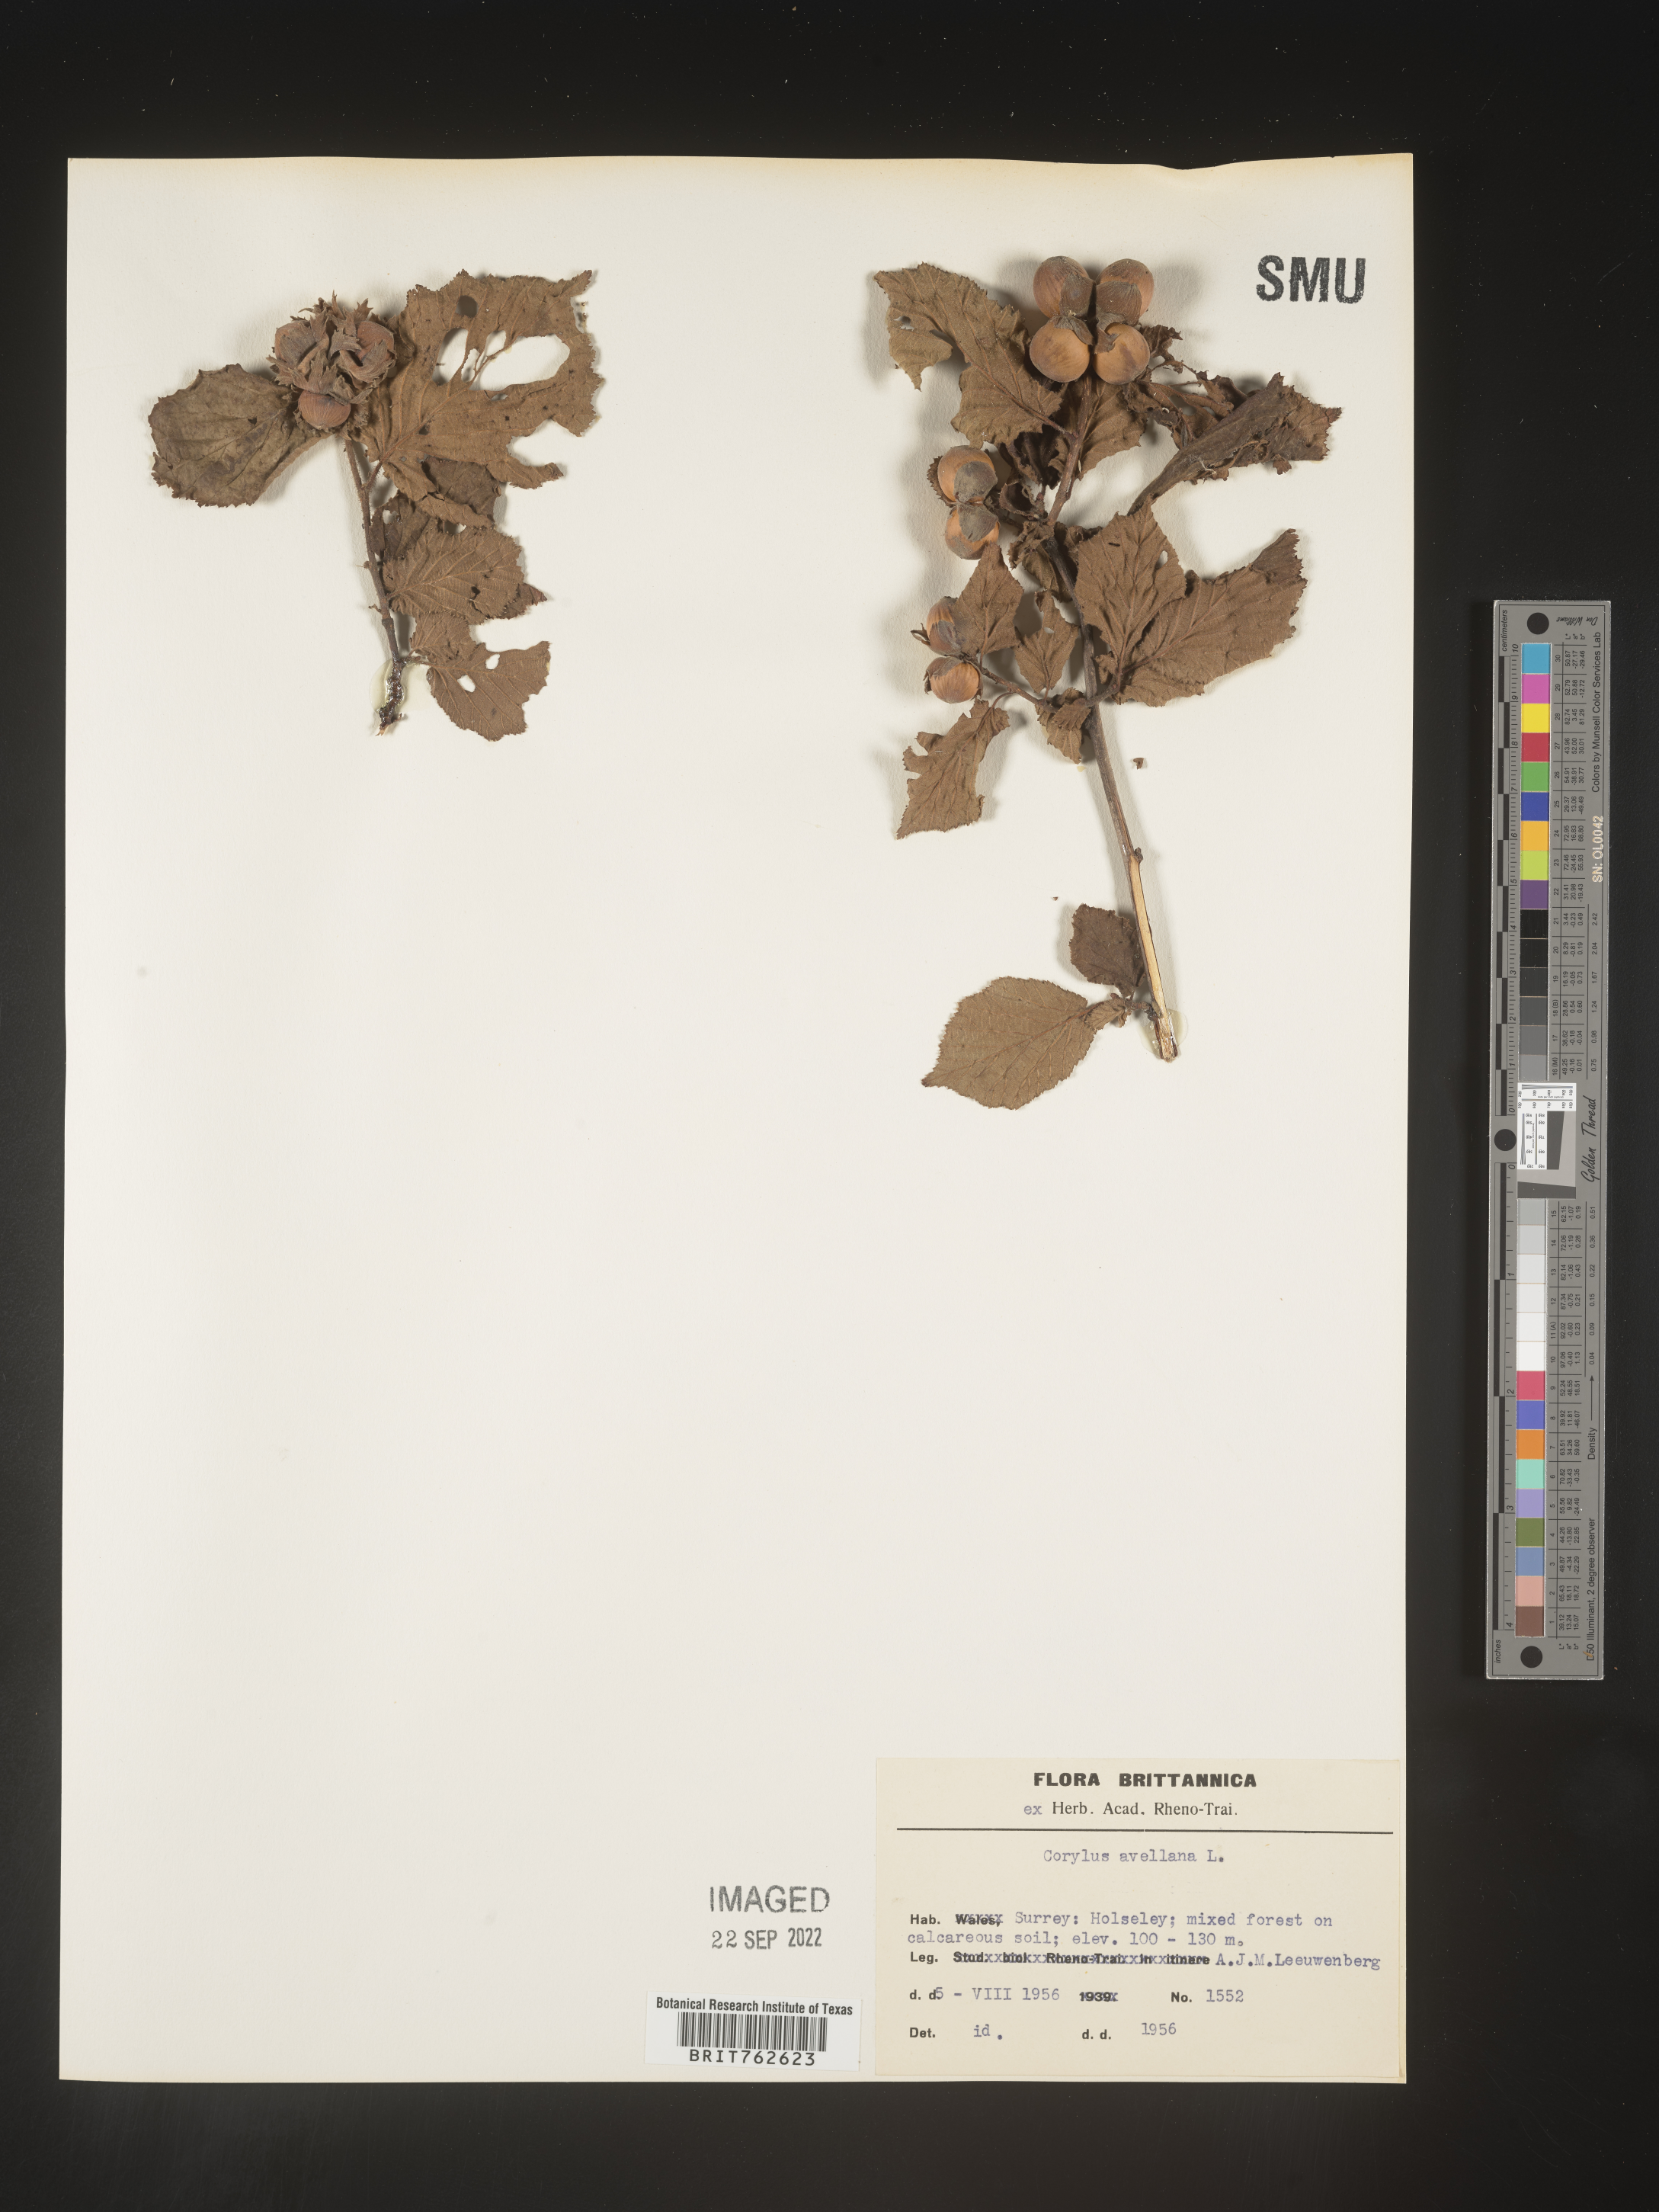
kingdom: Plantae
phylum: Tracheophyta
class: Magnoliopsida
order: Fagales
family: Betulaceae
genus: Corylus
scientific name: Corylus
